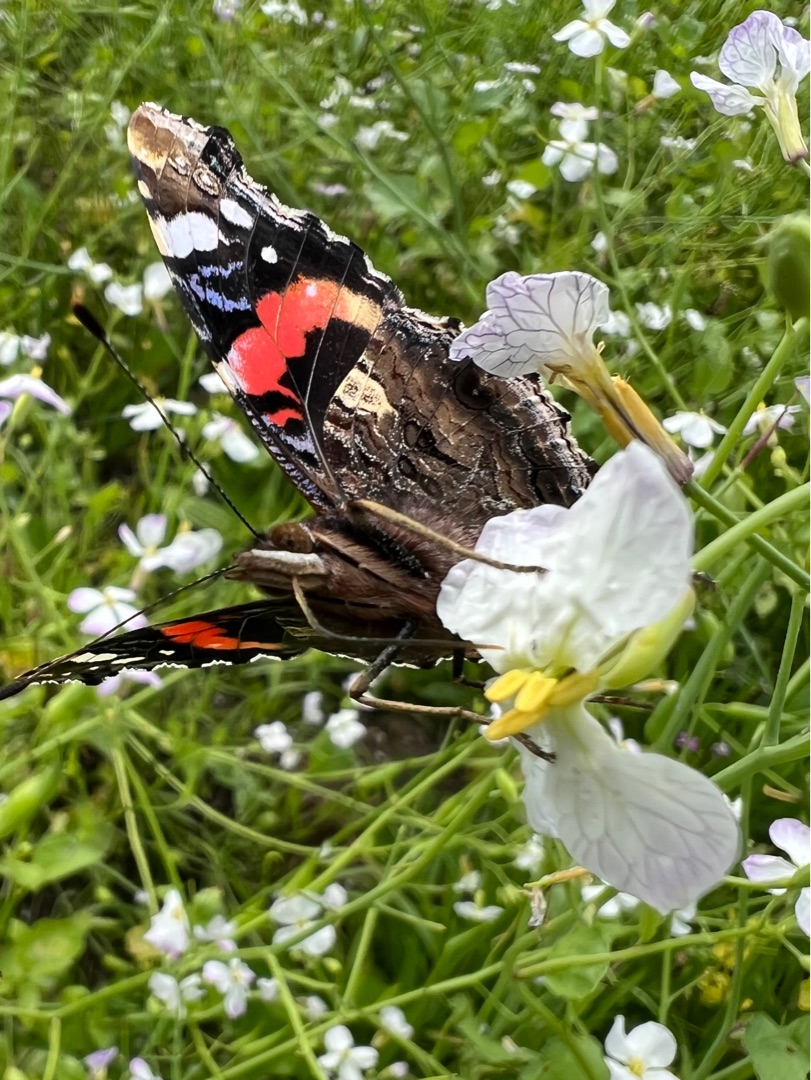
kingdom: Animalia
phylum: Arthropoda
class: Insecta
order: Lepidoptera
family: Nymphalidae
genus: Vanessa
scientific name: Vanessa atalanta
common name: Admiral
